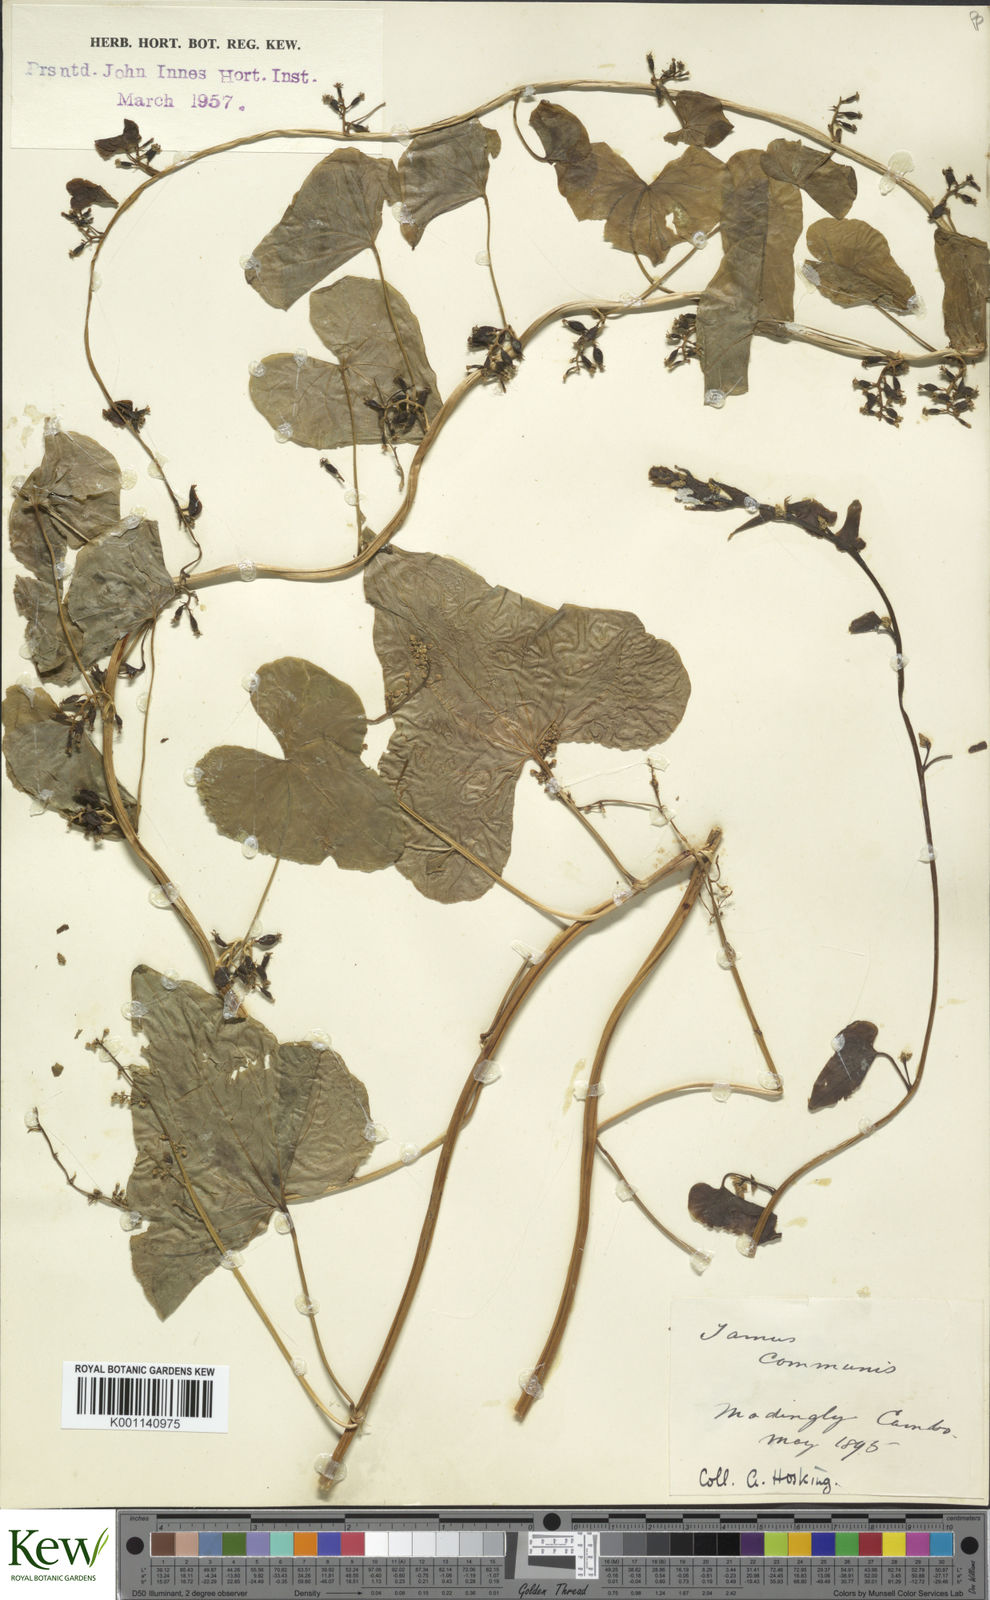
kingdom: Plantae
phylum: Tracheophyta
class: Liliopsida
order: Dioscoreales
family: Dioscoreaceae
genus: Dioscorea
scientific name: Dioscorea communis
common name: Black-bindweed
